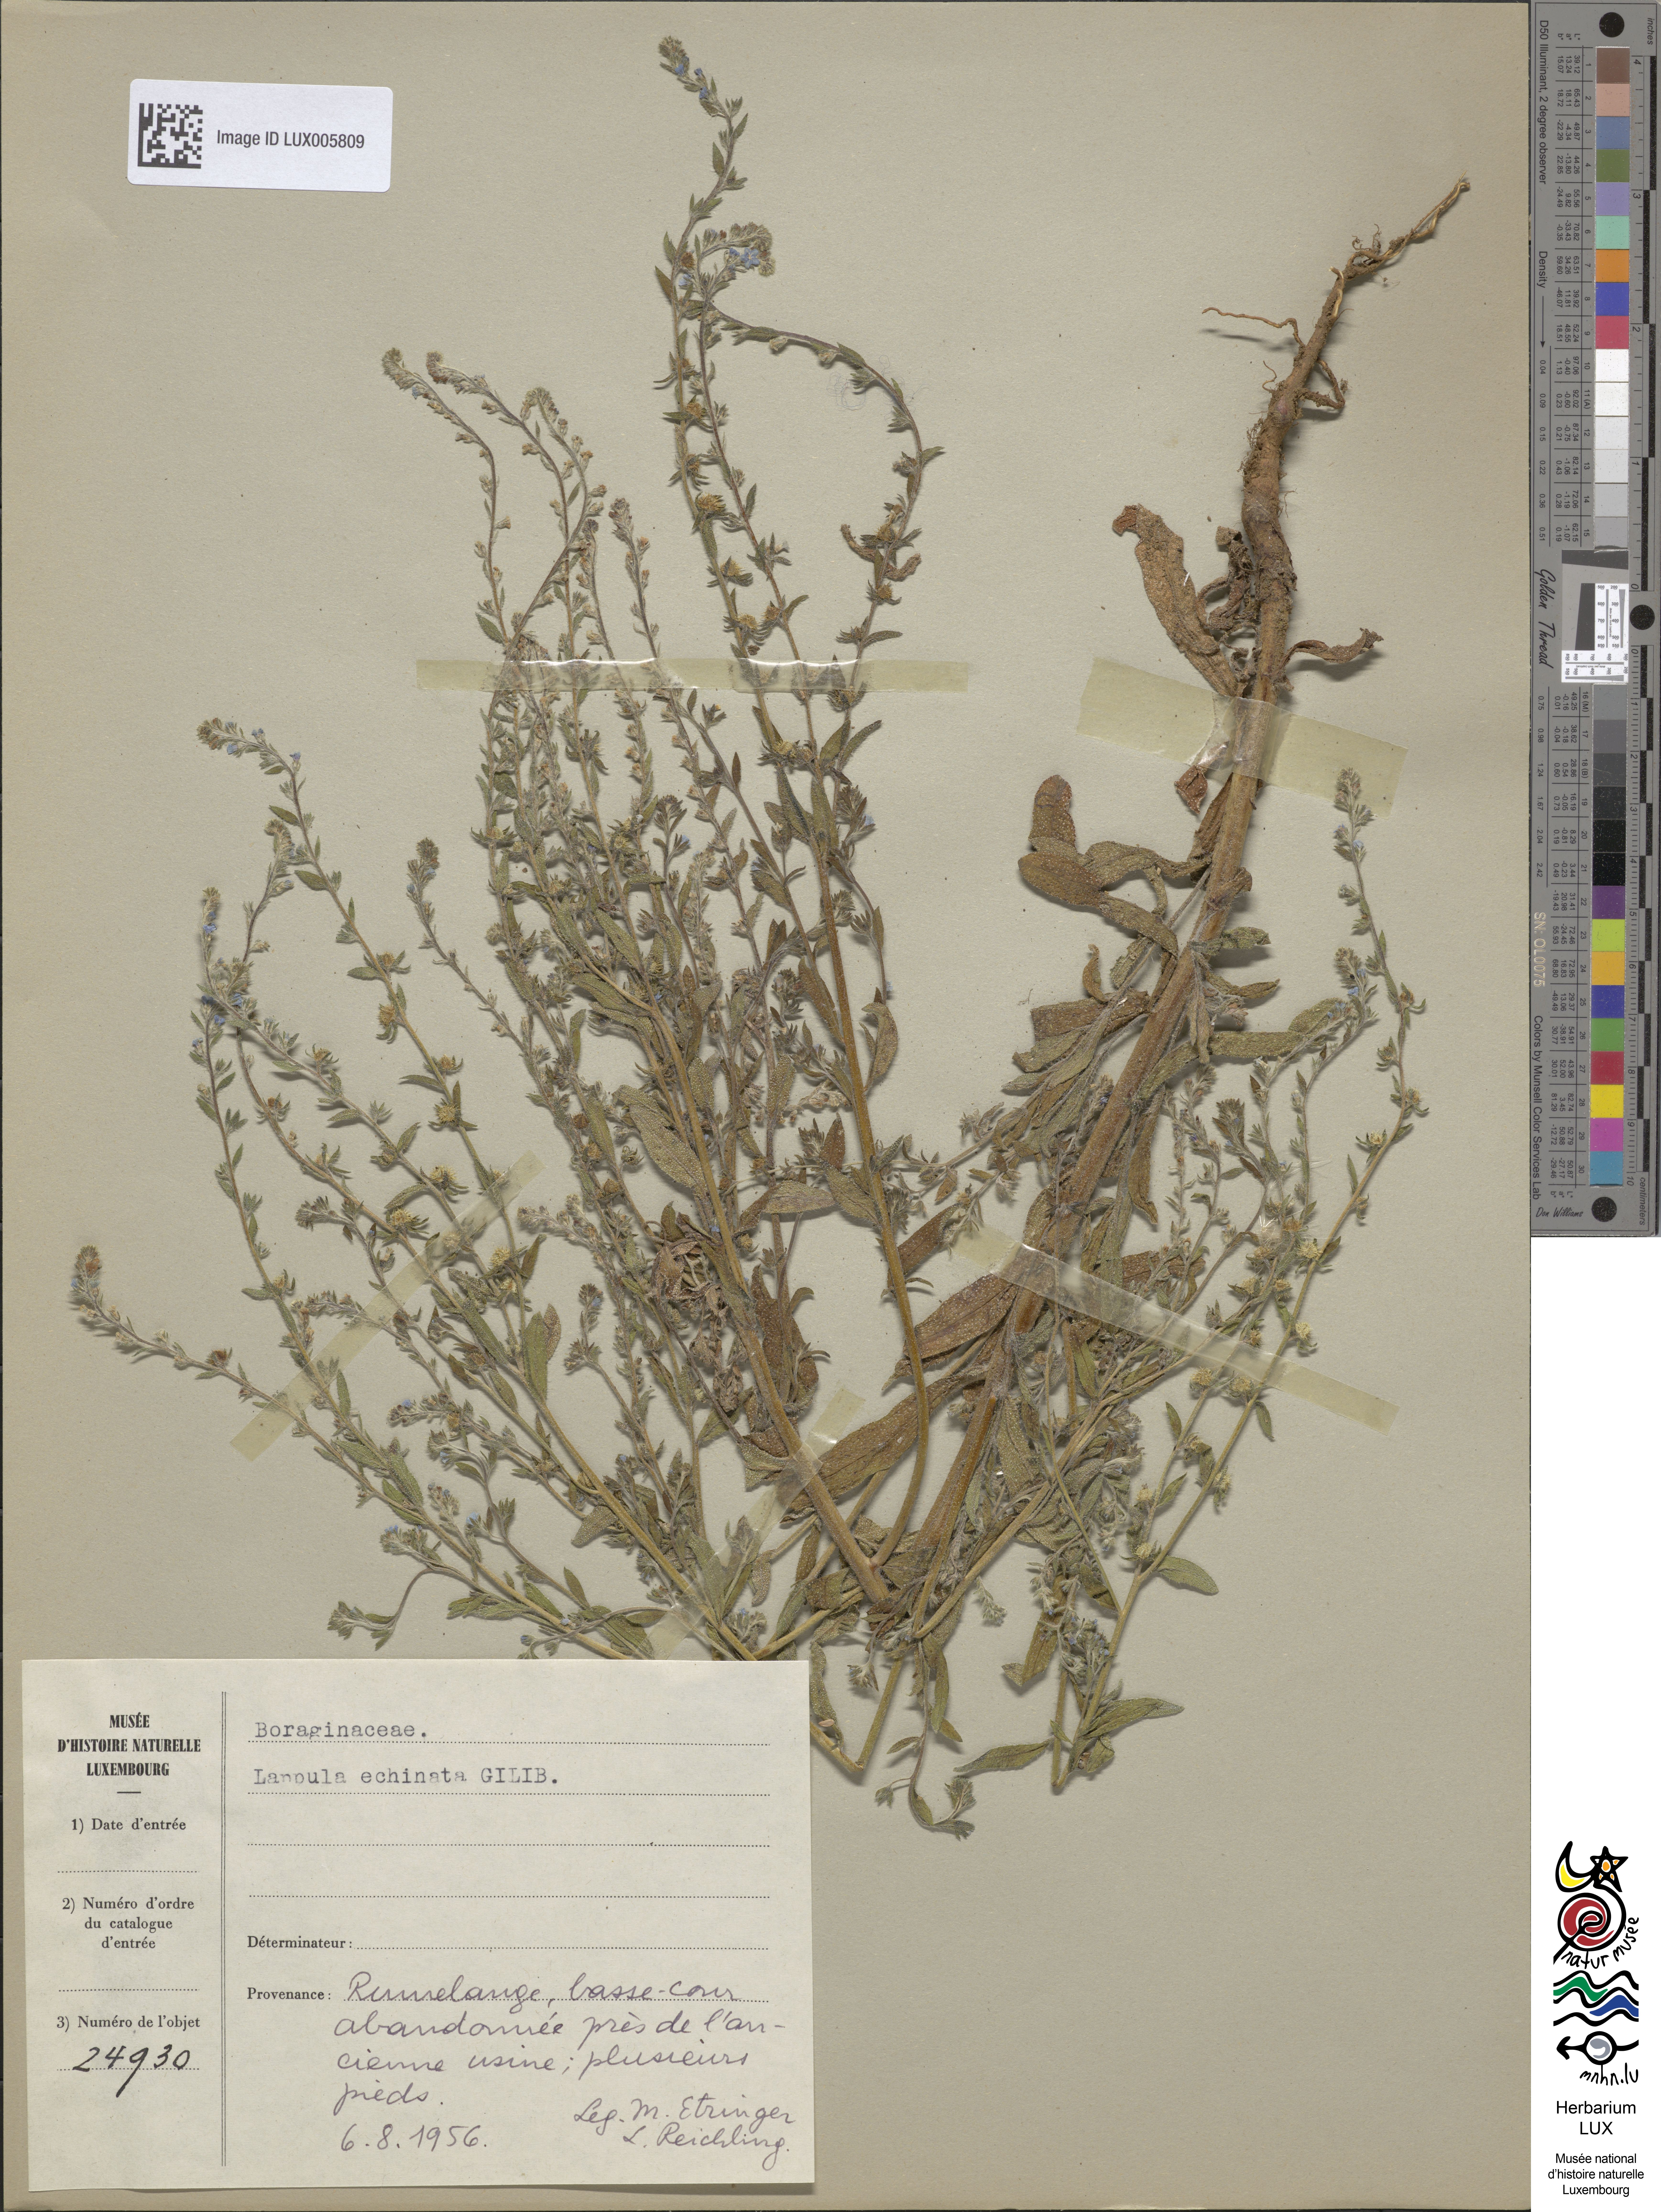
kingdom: Plantae
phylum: Tracheophyta
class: Magnoliopsida
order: Boraginales
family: Boraginaceae
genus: Lappula
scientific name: Lappula squarrosa
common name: European stickseed
